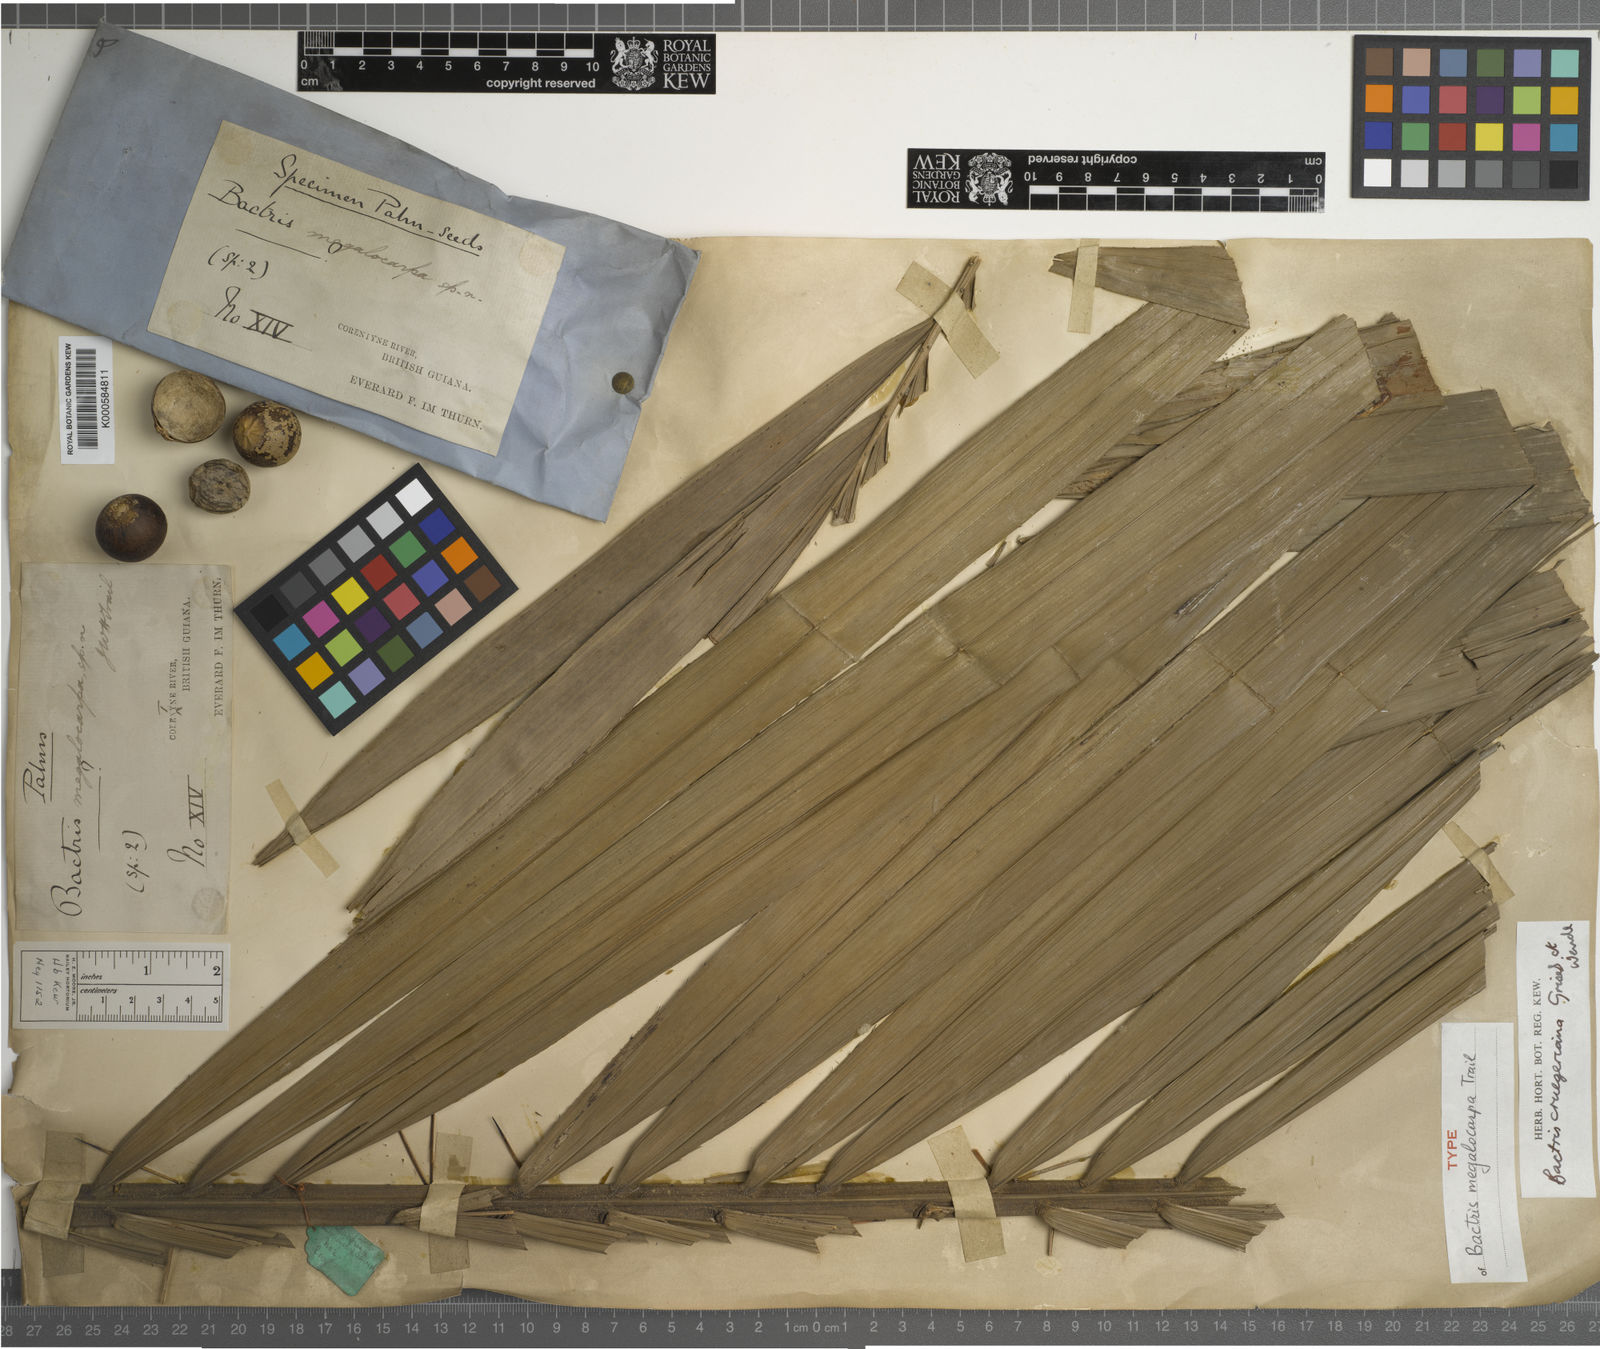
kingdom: Plantae
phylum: Tracheophyta
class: Liliopsida
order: Arecales
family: Arecaceae
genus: Bactris
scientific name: Bactris major
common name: Beach palm
